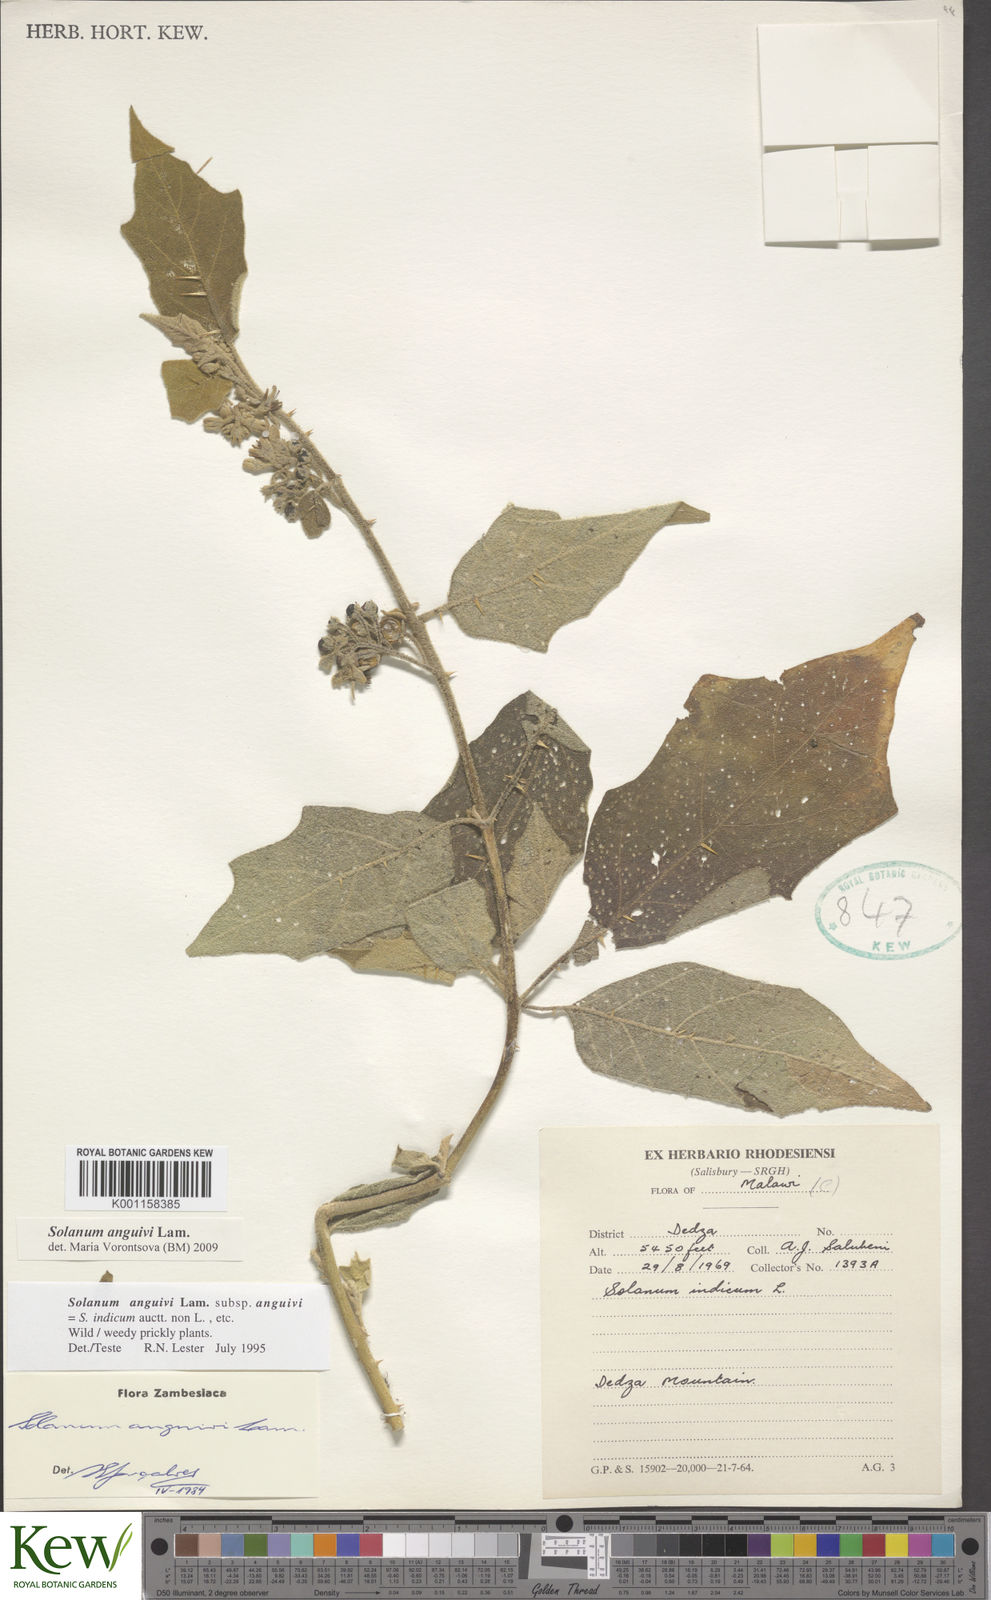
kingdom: Plantae
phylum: Tracheophyta
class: Magnoliopsida
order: Solanales
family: Solanaceae
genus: Solanum
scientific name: Solanum anguivi
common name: Forest bitterberry
